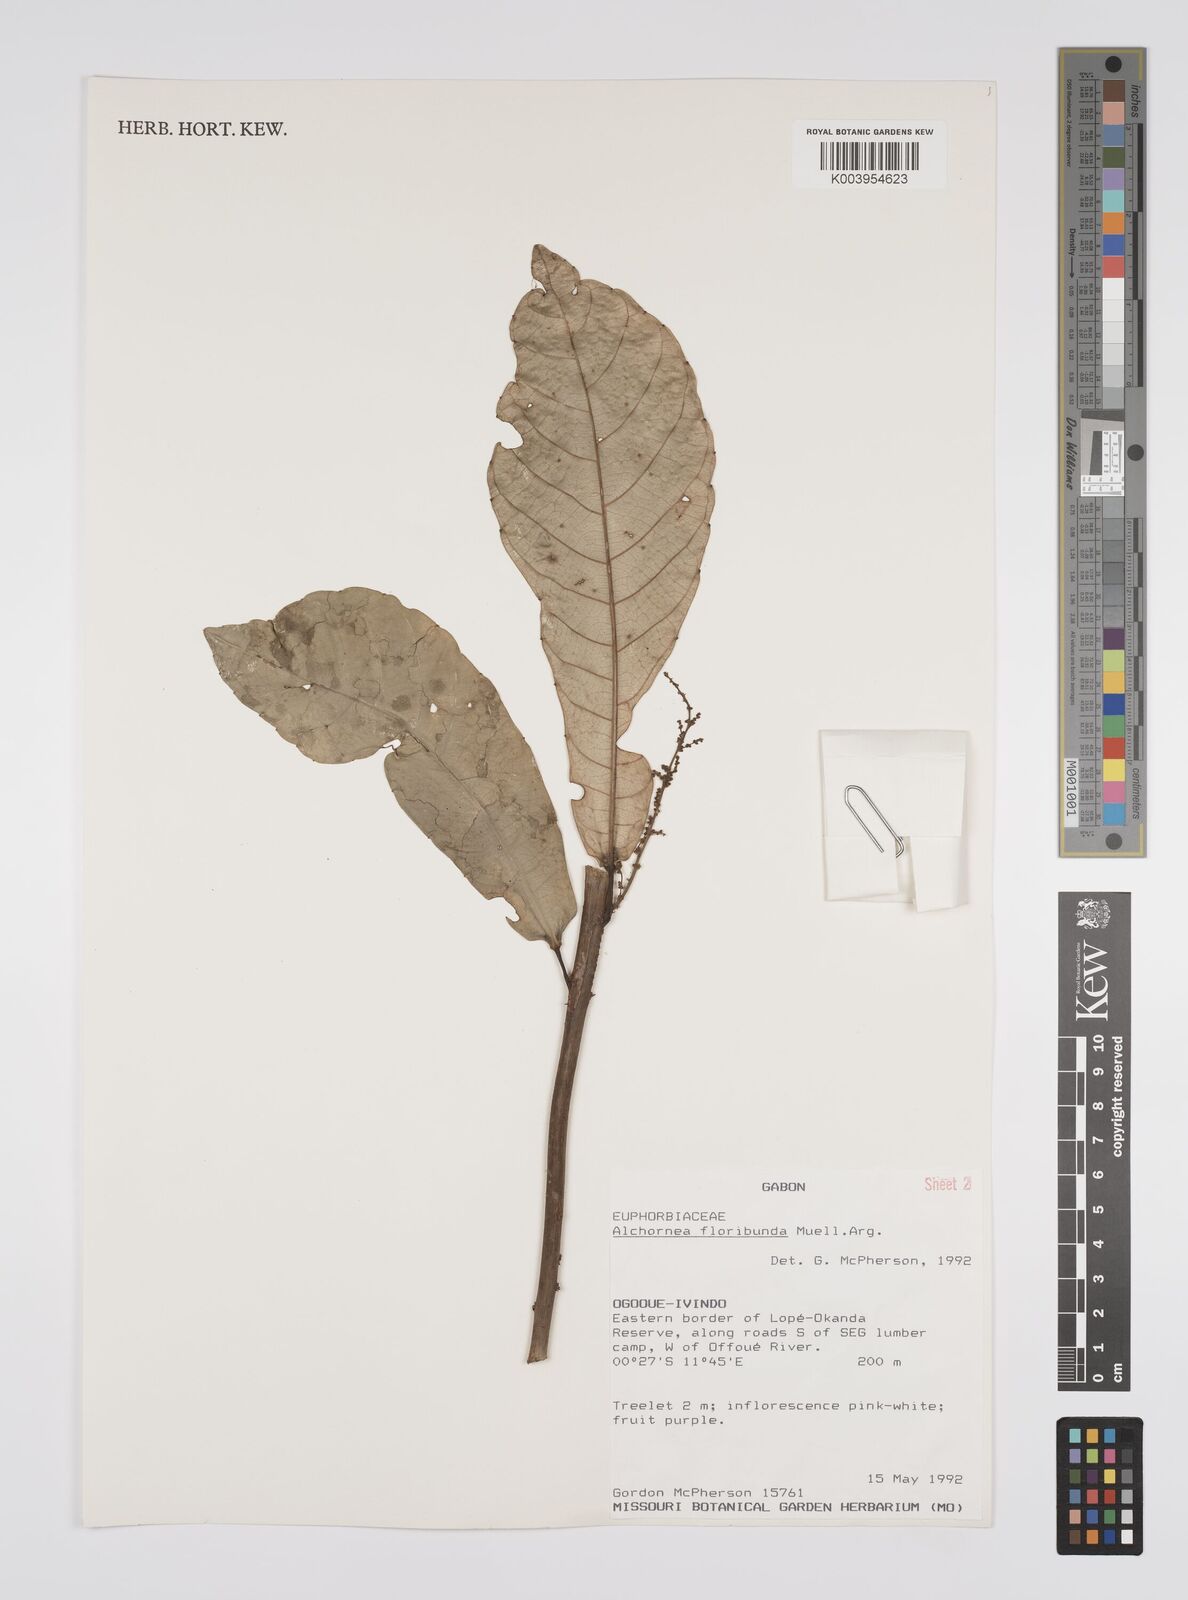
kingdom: Plantae
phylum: Tracheophyta
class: Magnoliopsida
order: Malpighiales
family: Euphorbiaceae
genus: Alchornea
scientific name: Alchornea floribunda
